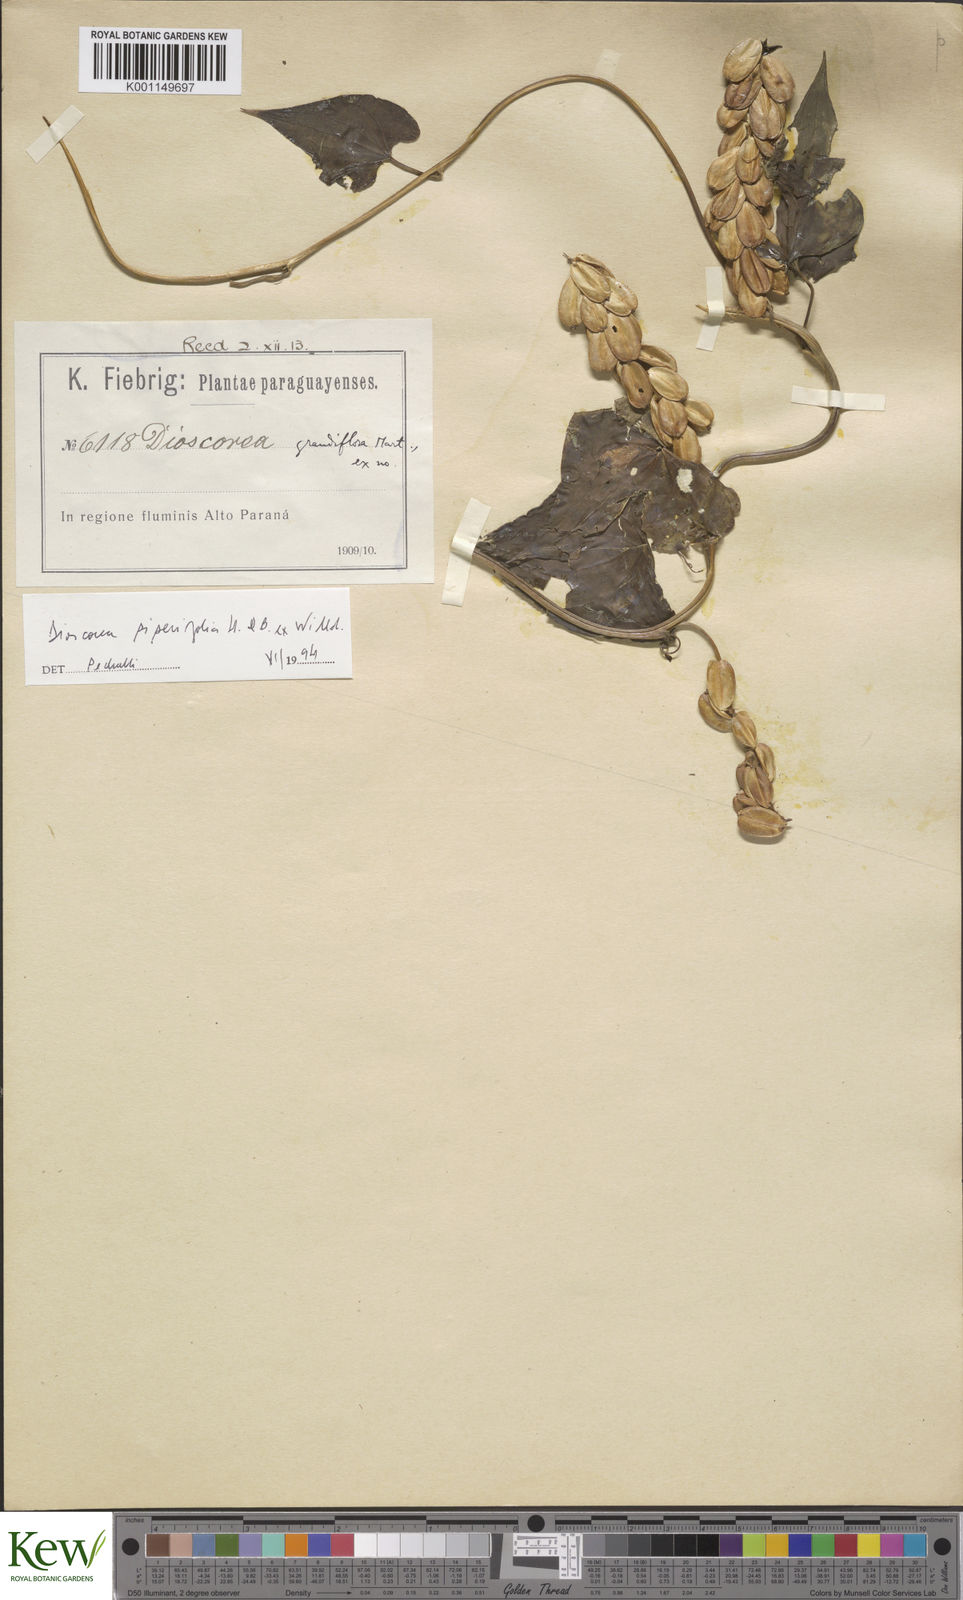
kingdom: Plantae
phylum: Tracheophyta
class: Liliopsida
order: Dioscoreales
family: Dioscoreaceae
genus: Dioscorea
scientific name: Dioscorea grandiflora
